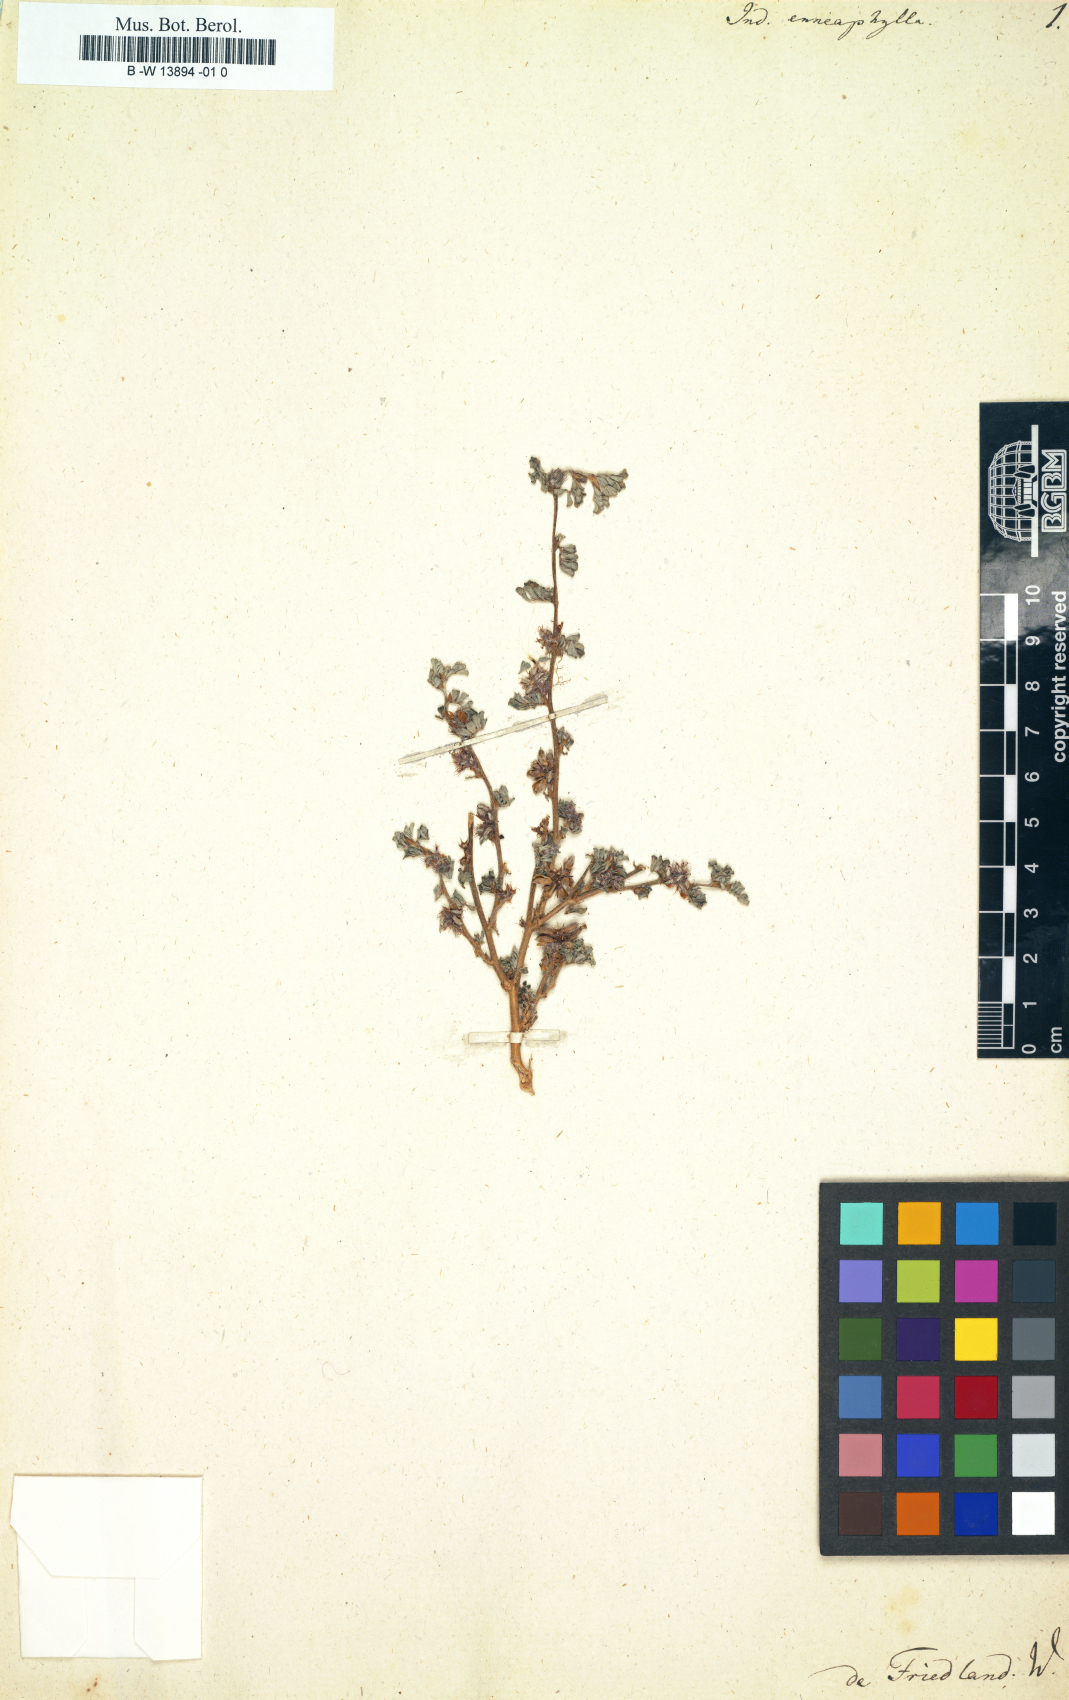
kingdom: Plantae
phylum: Tracheophyta
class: Magnoliopsida
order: Fabales
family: Fabaceae
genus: Indigofera
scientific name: Indigofera alternans
